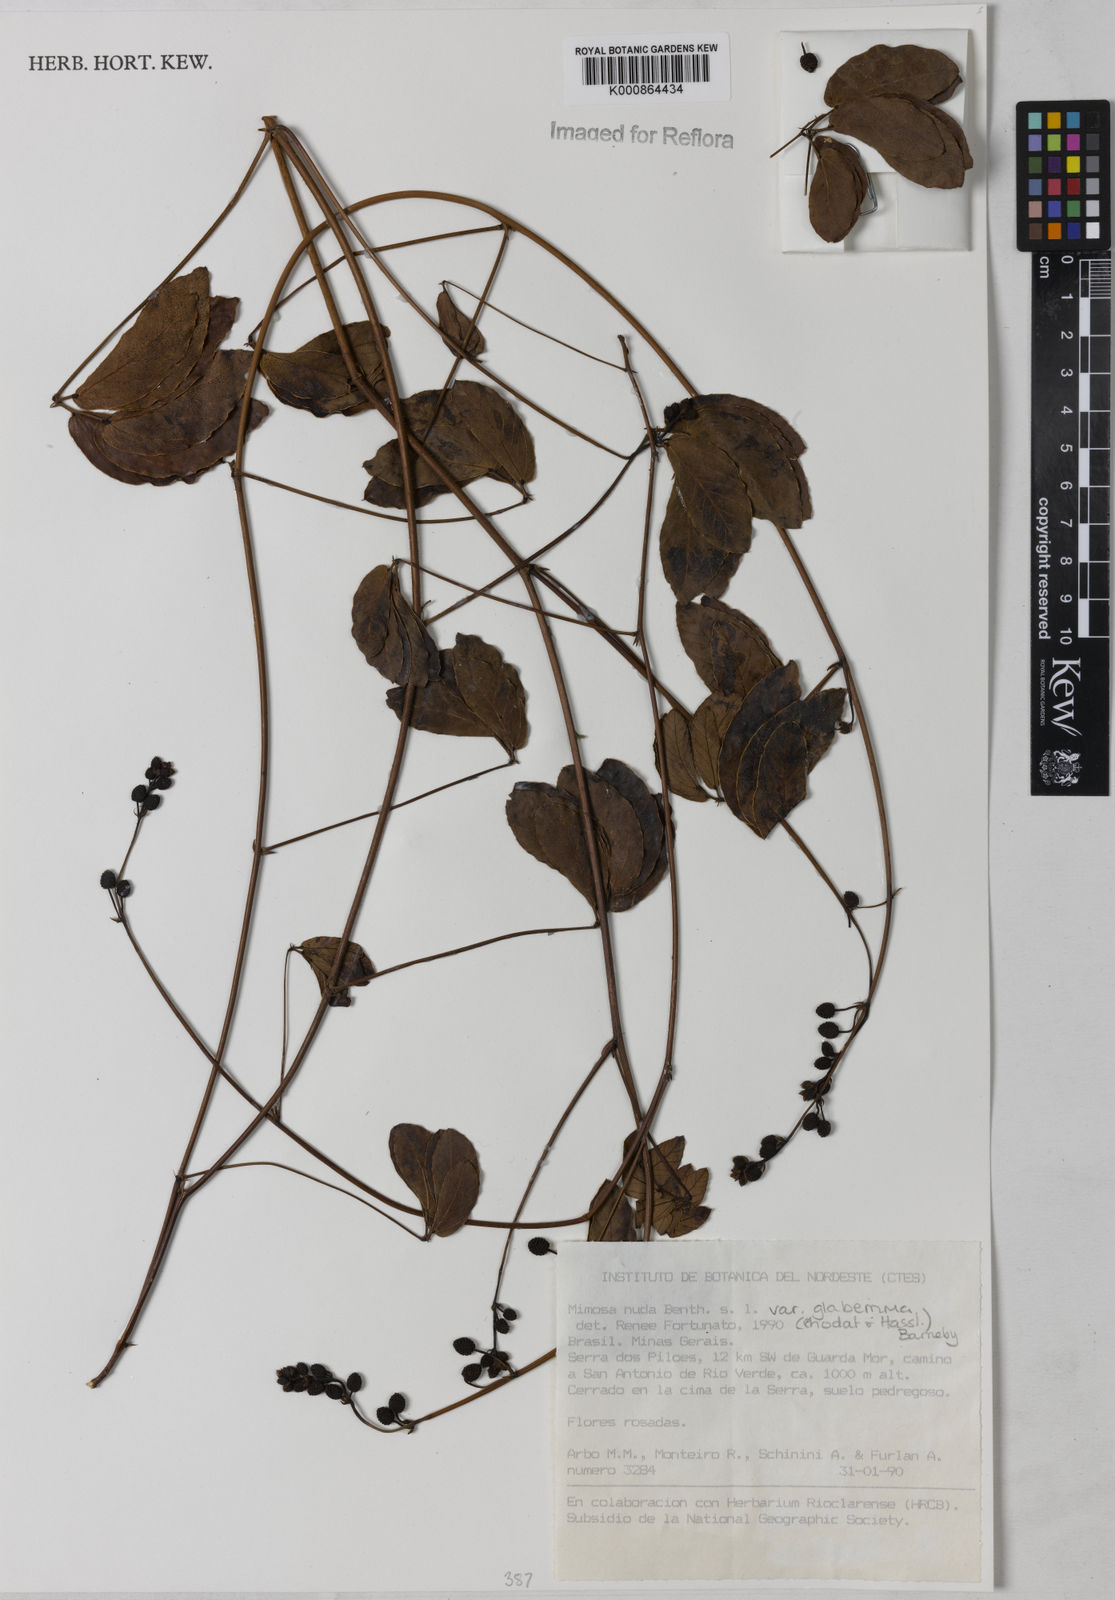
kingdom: Plantae
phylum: Tracheophyta
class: Magnoliopsida
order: Fabales
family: Fabaceae
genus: Mimosa
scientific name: Mimosa debilis
